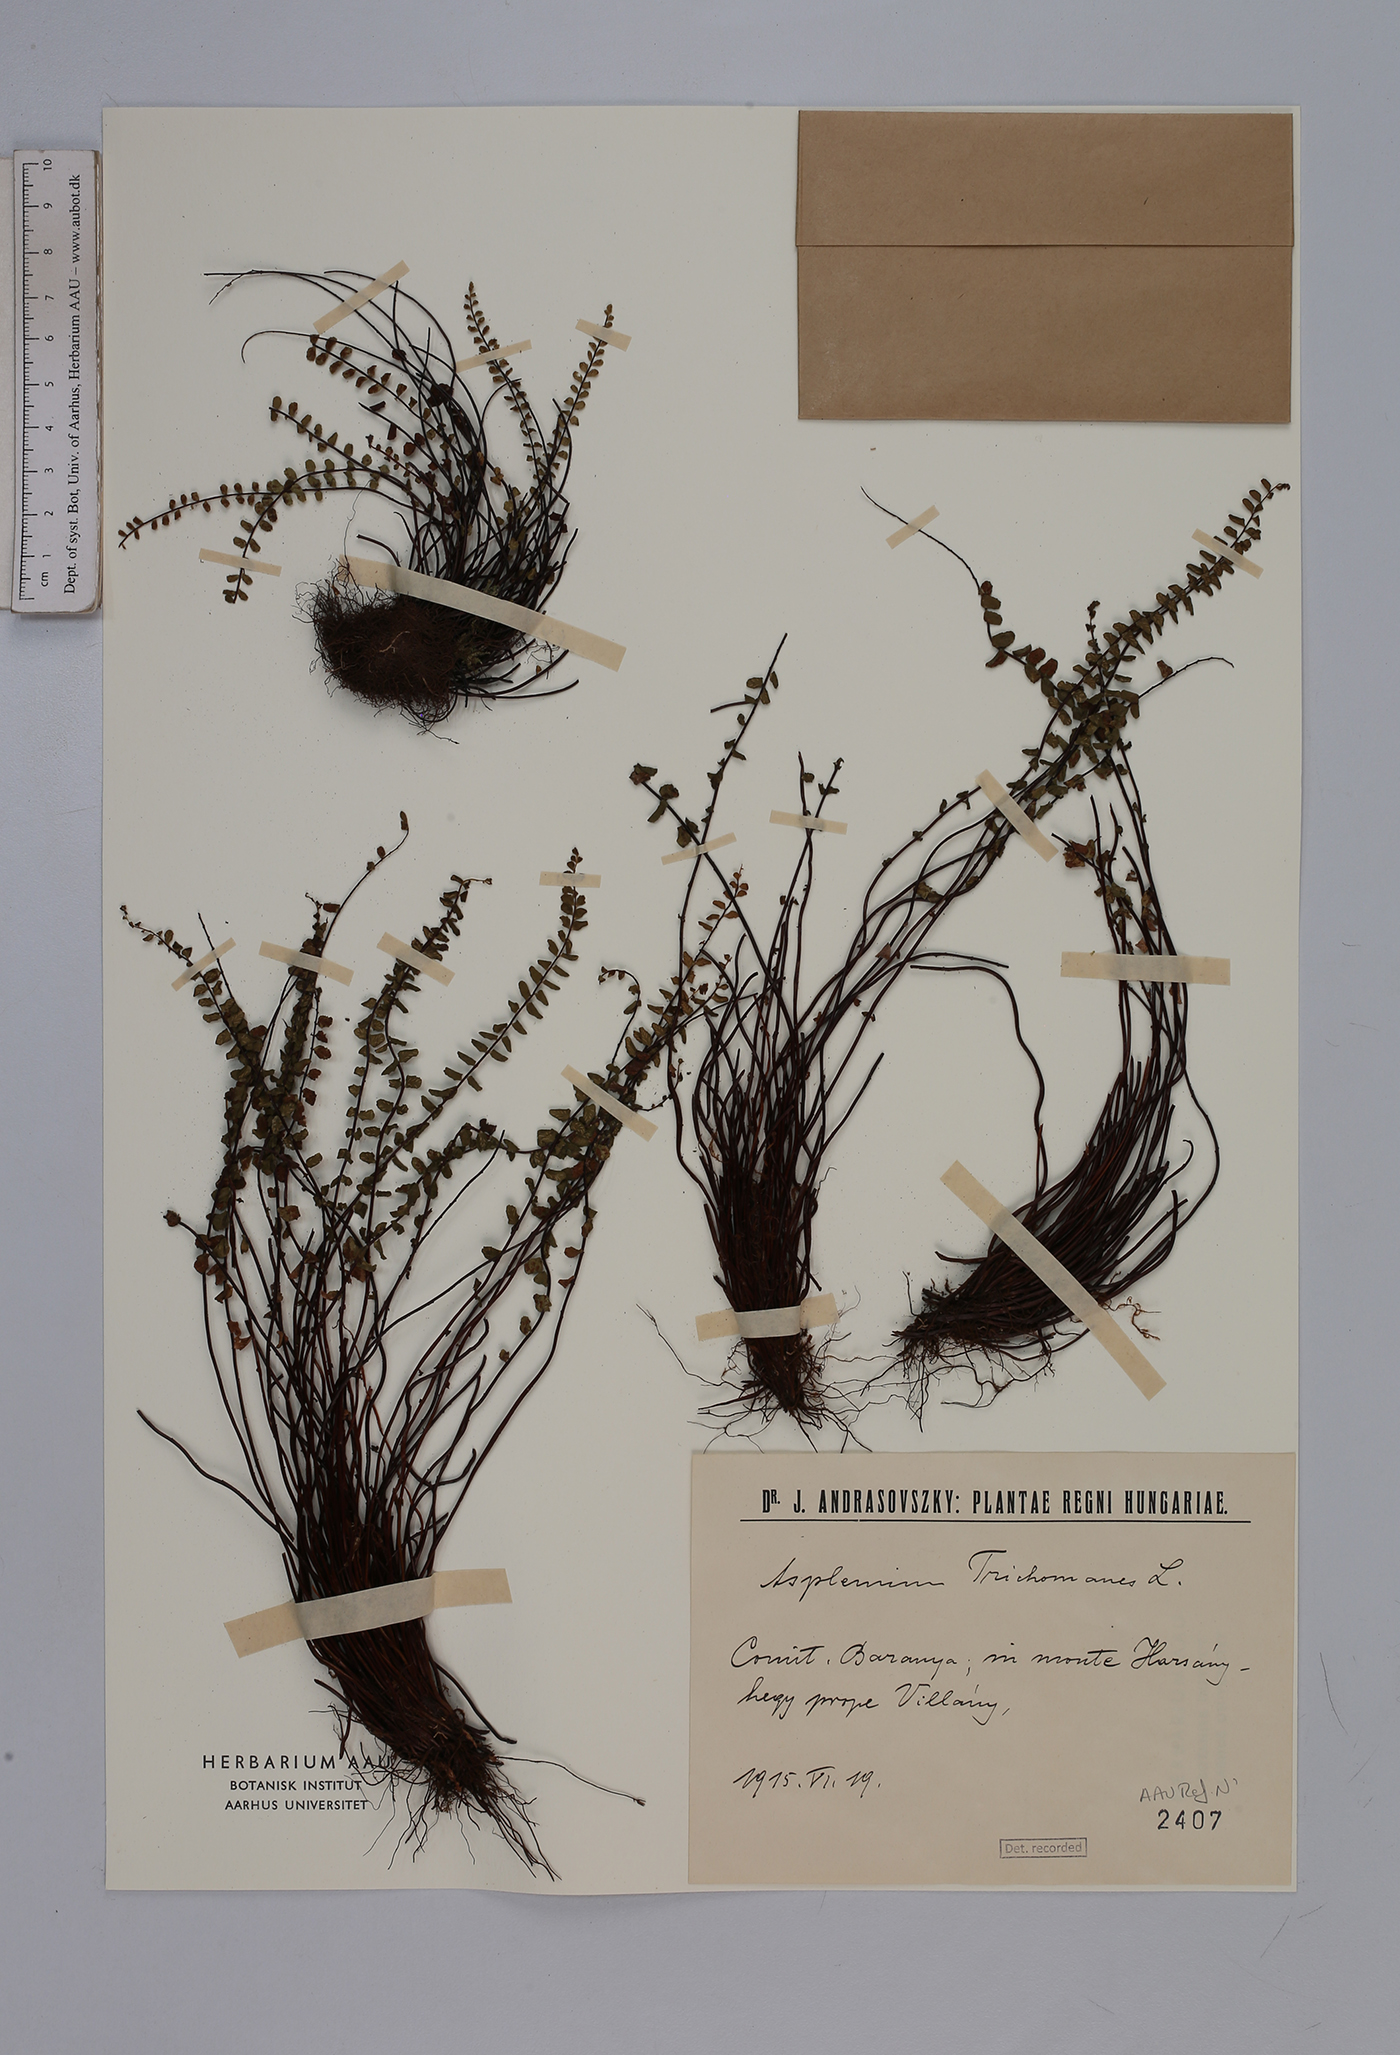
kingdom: Plantae
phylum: Tracheophyta
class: Polypodiopsida
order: Polypodiales
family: Aspleniaceae
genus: Asplenium
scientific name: Asplenium trichomanes
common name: Maidenhair spleenwort
